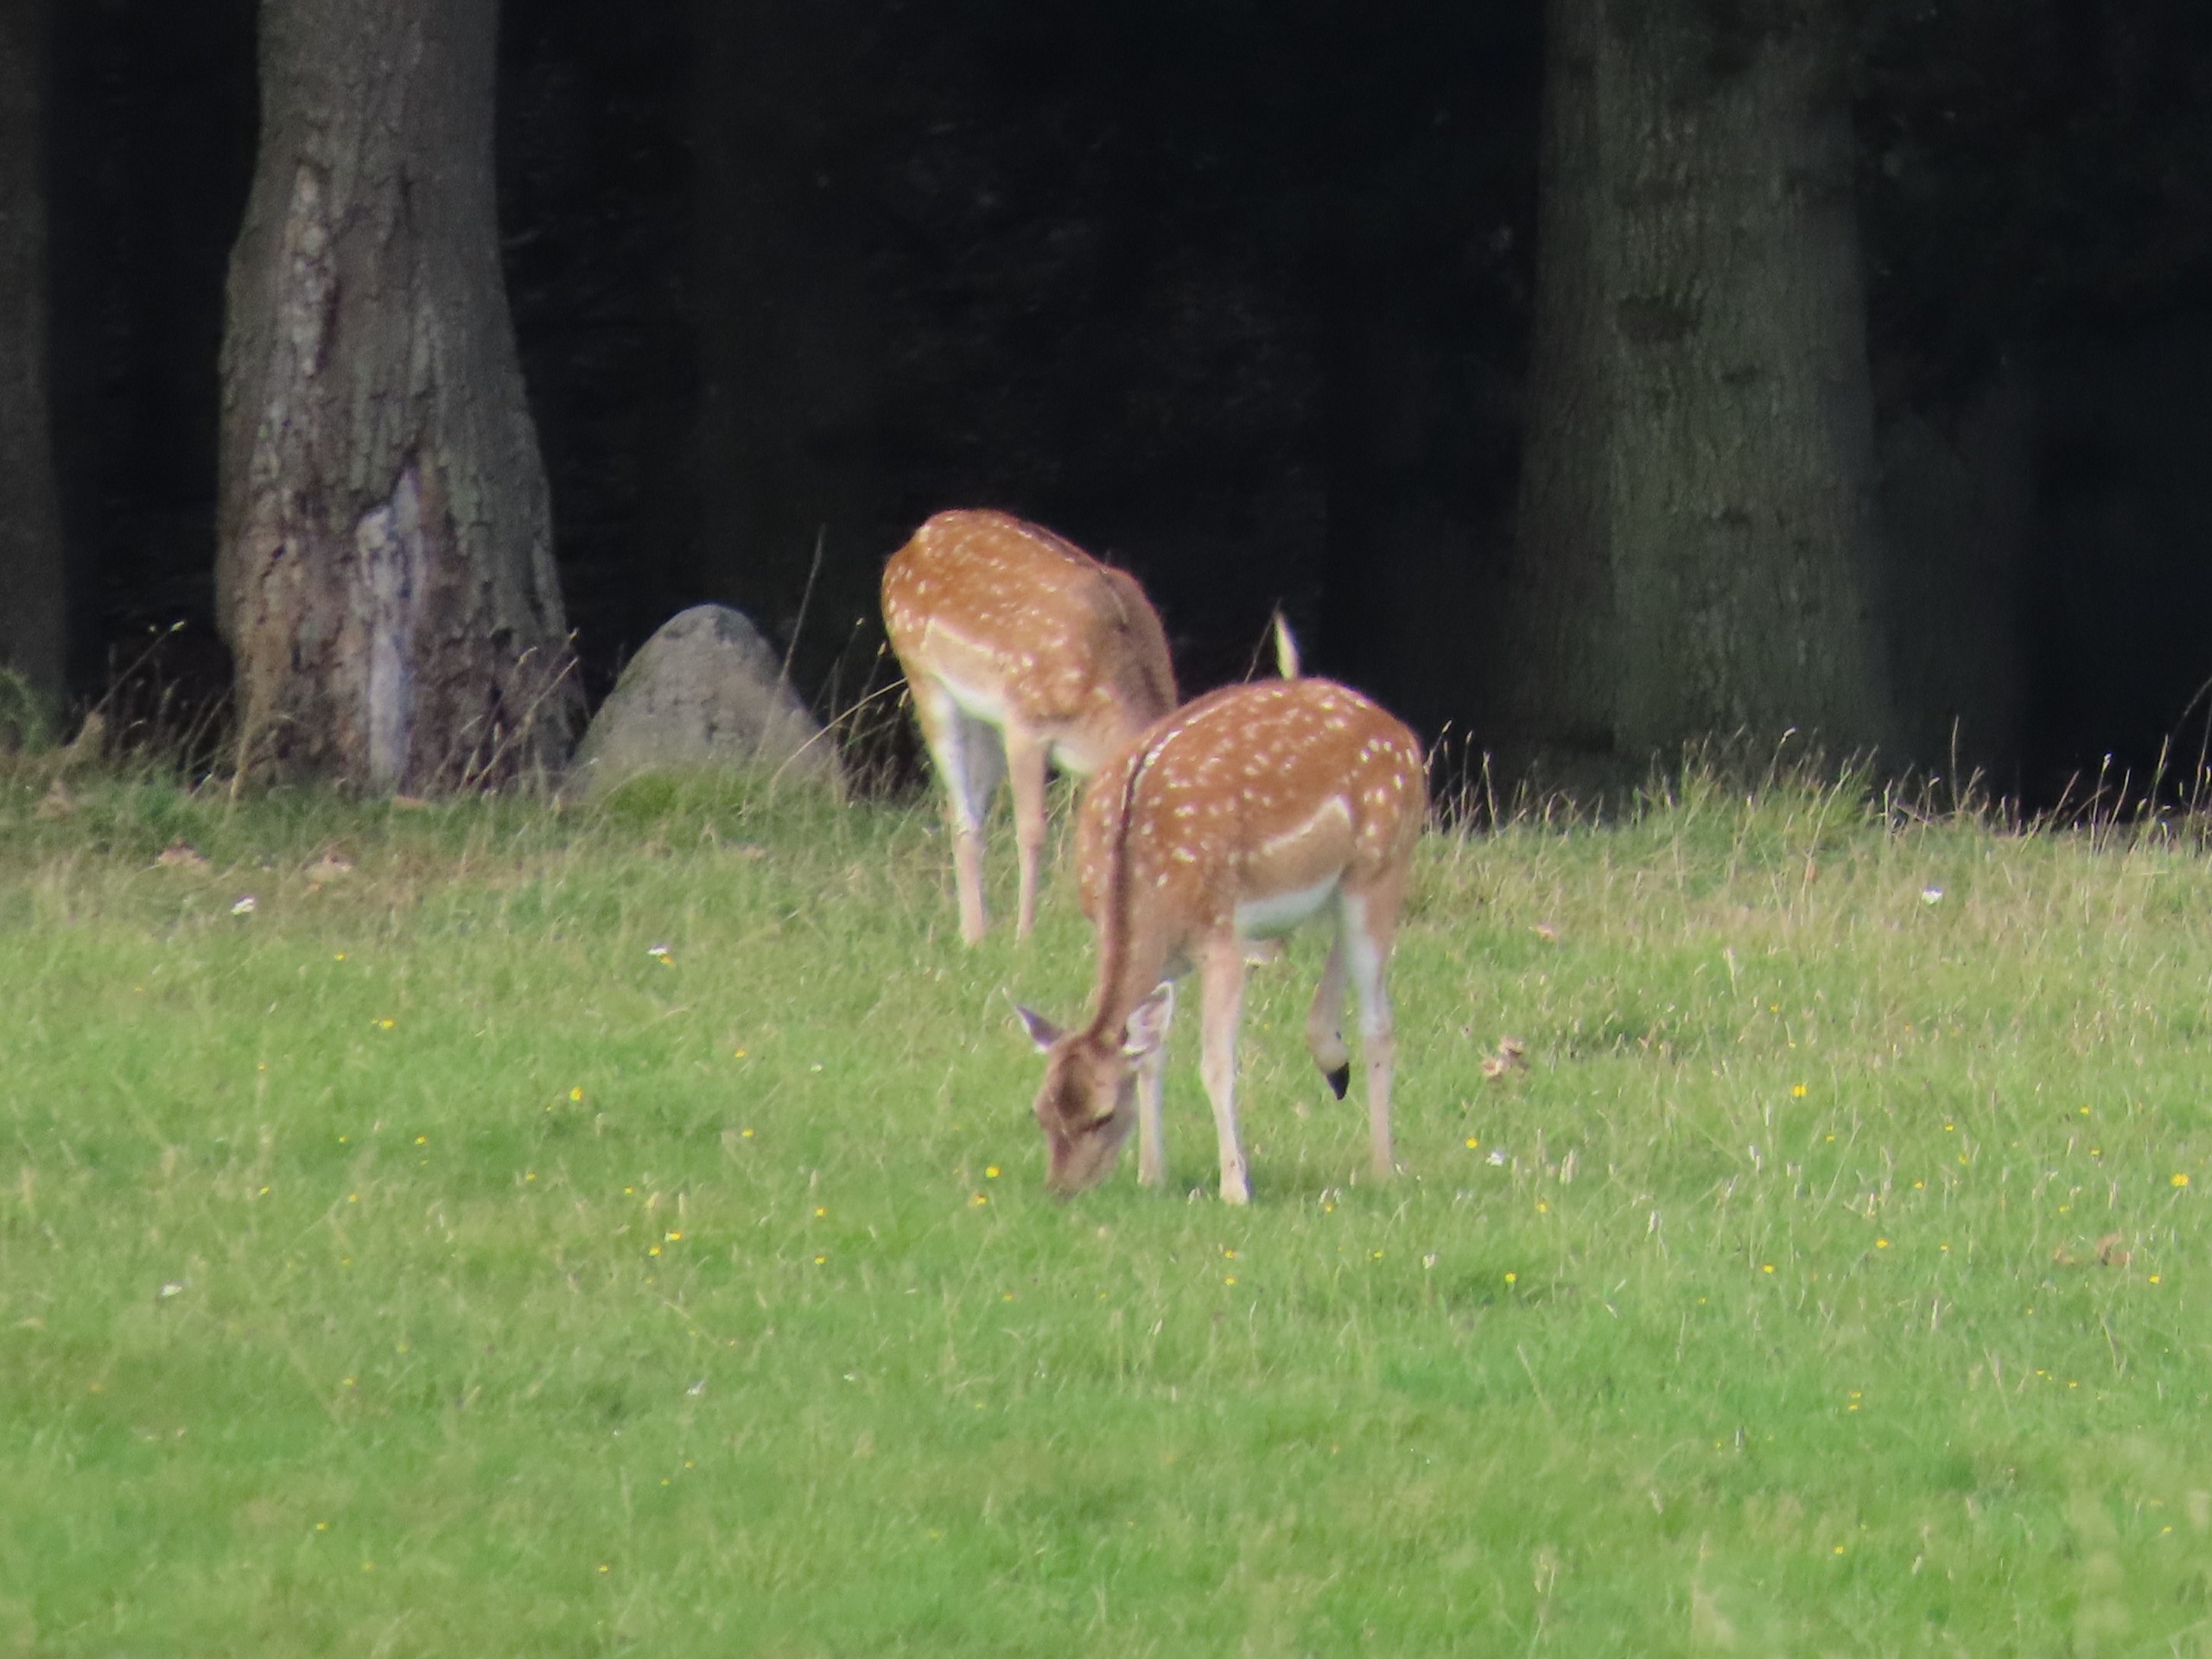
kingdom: Animalia
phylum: Chordata
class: Mammalia
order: Artiodactyla
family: Cervidae
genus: Dama
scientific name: Dama dama
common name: Dådyr
